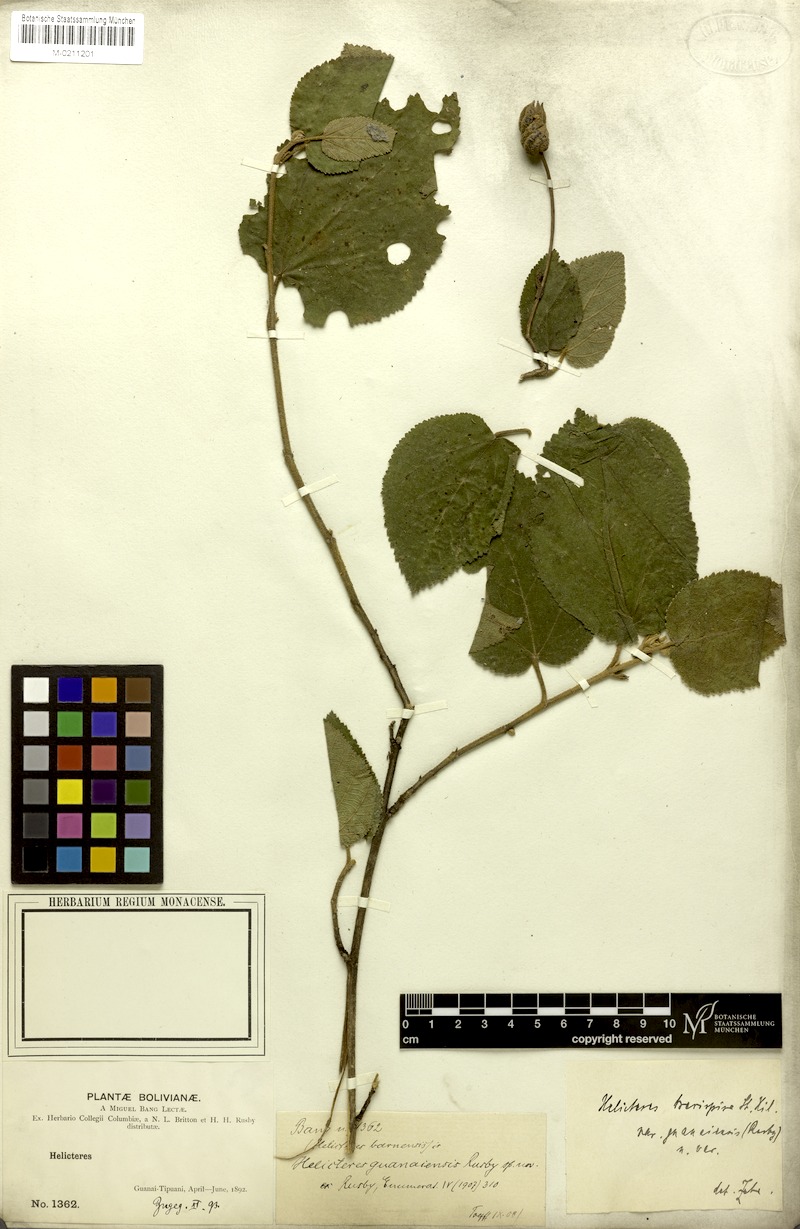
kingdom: Plantae
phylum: Tracheophyta
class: Magnoliopsida
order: Malvales
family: Malvaceae
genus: Helicteres
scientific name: Helicteres brevispira
